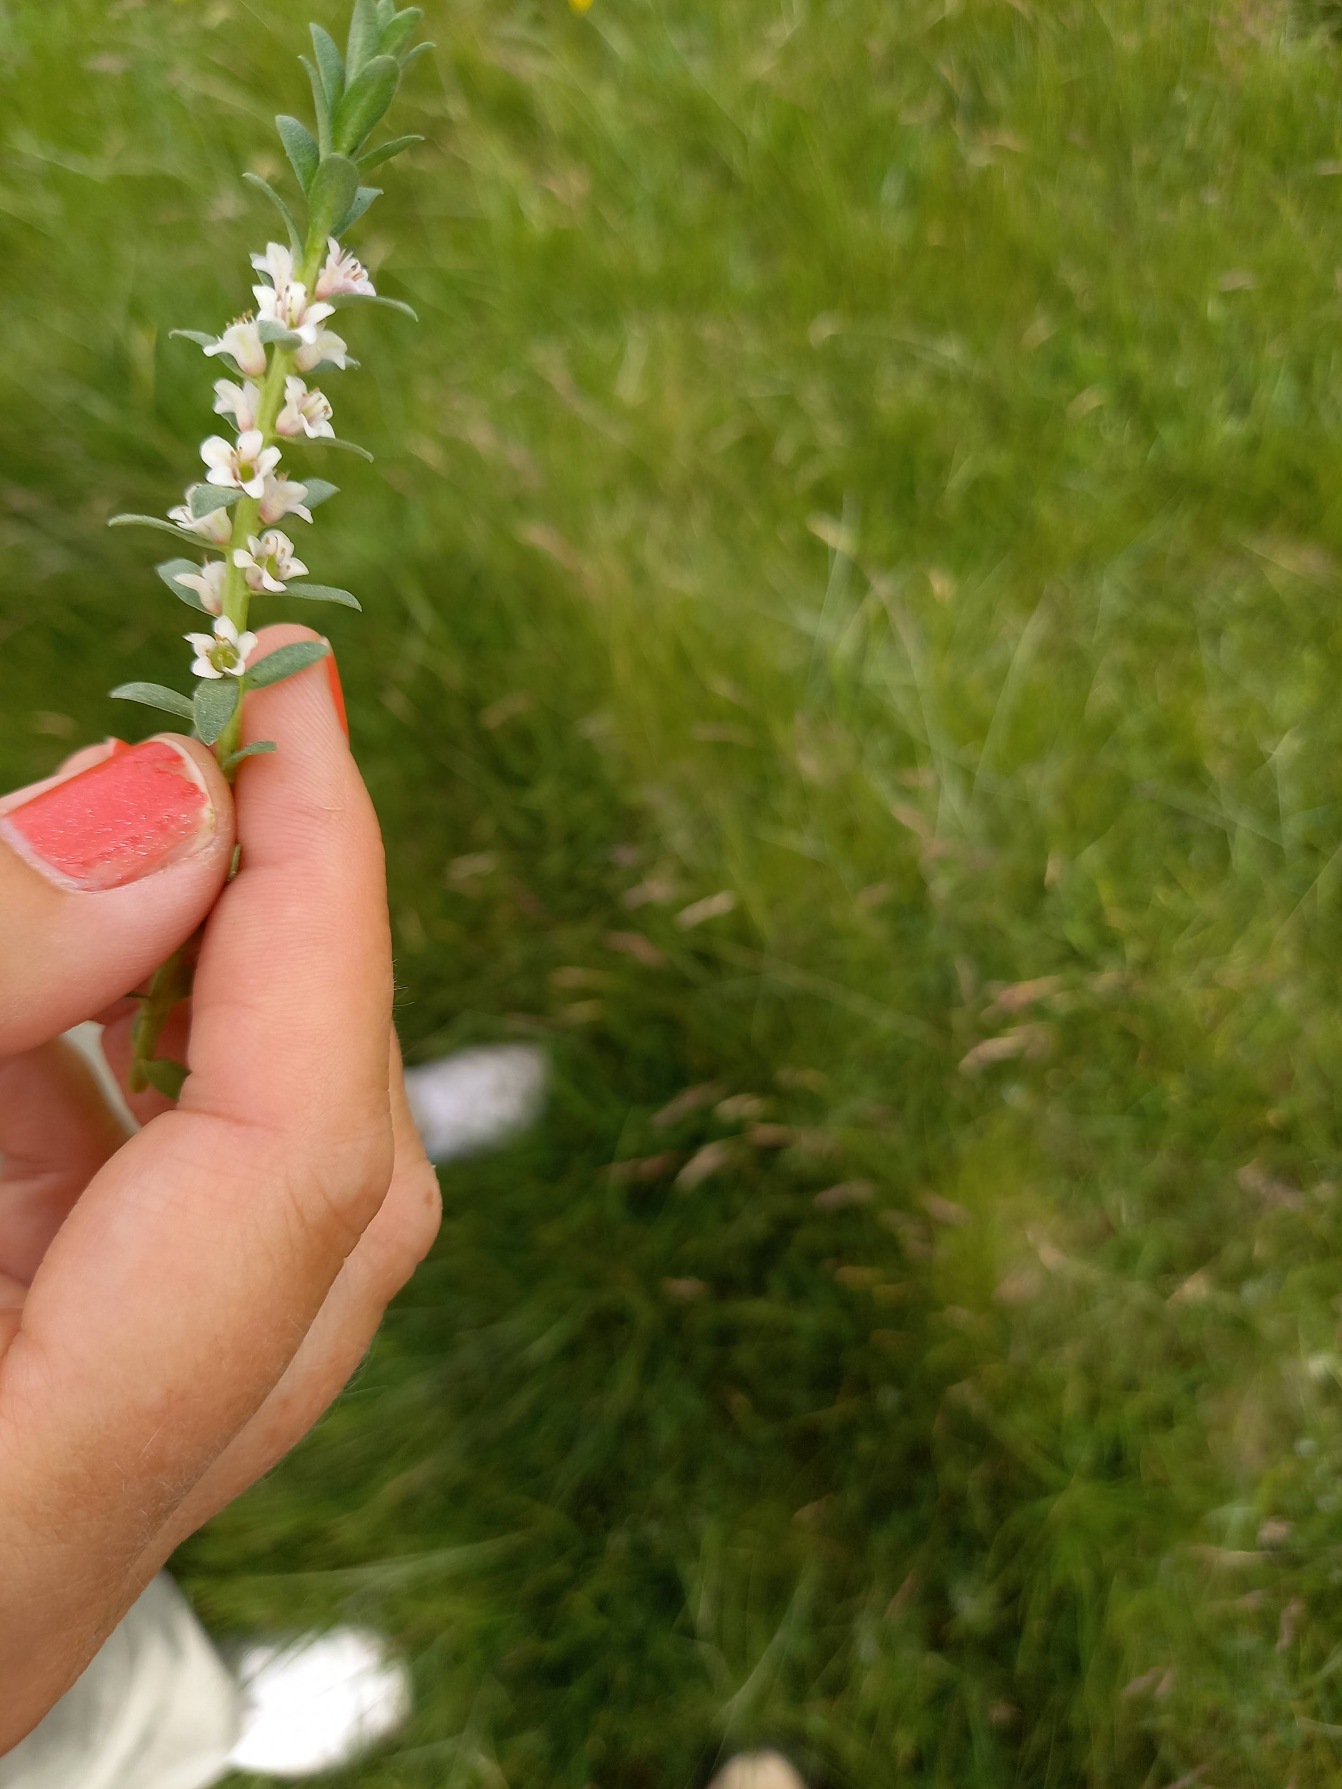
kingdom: Plantae
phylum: Tracheophyta
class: Magnoliopsida
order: Ericales
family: Primulaceae
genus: Lysimachia
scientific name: Lysimachia maritima
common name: Sandkryb
